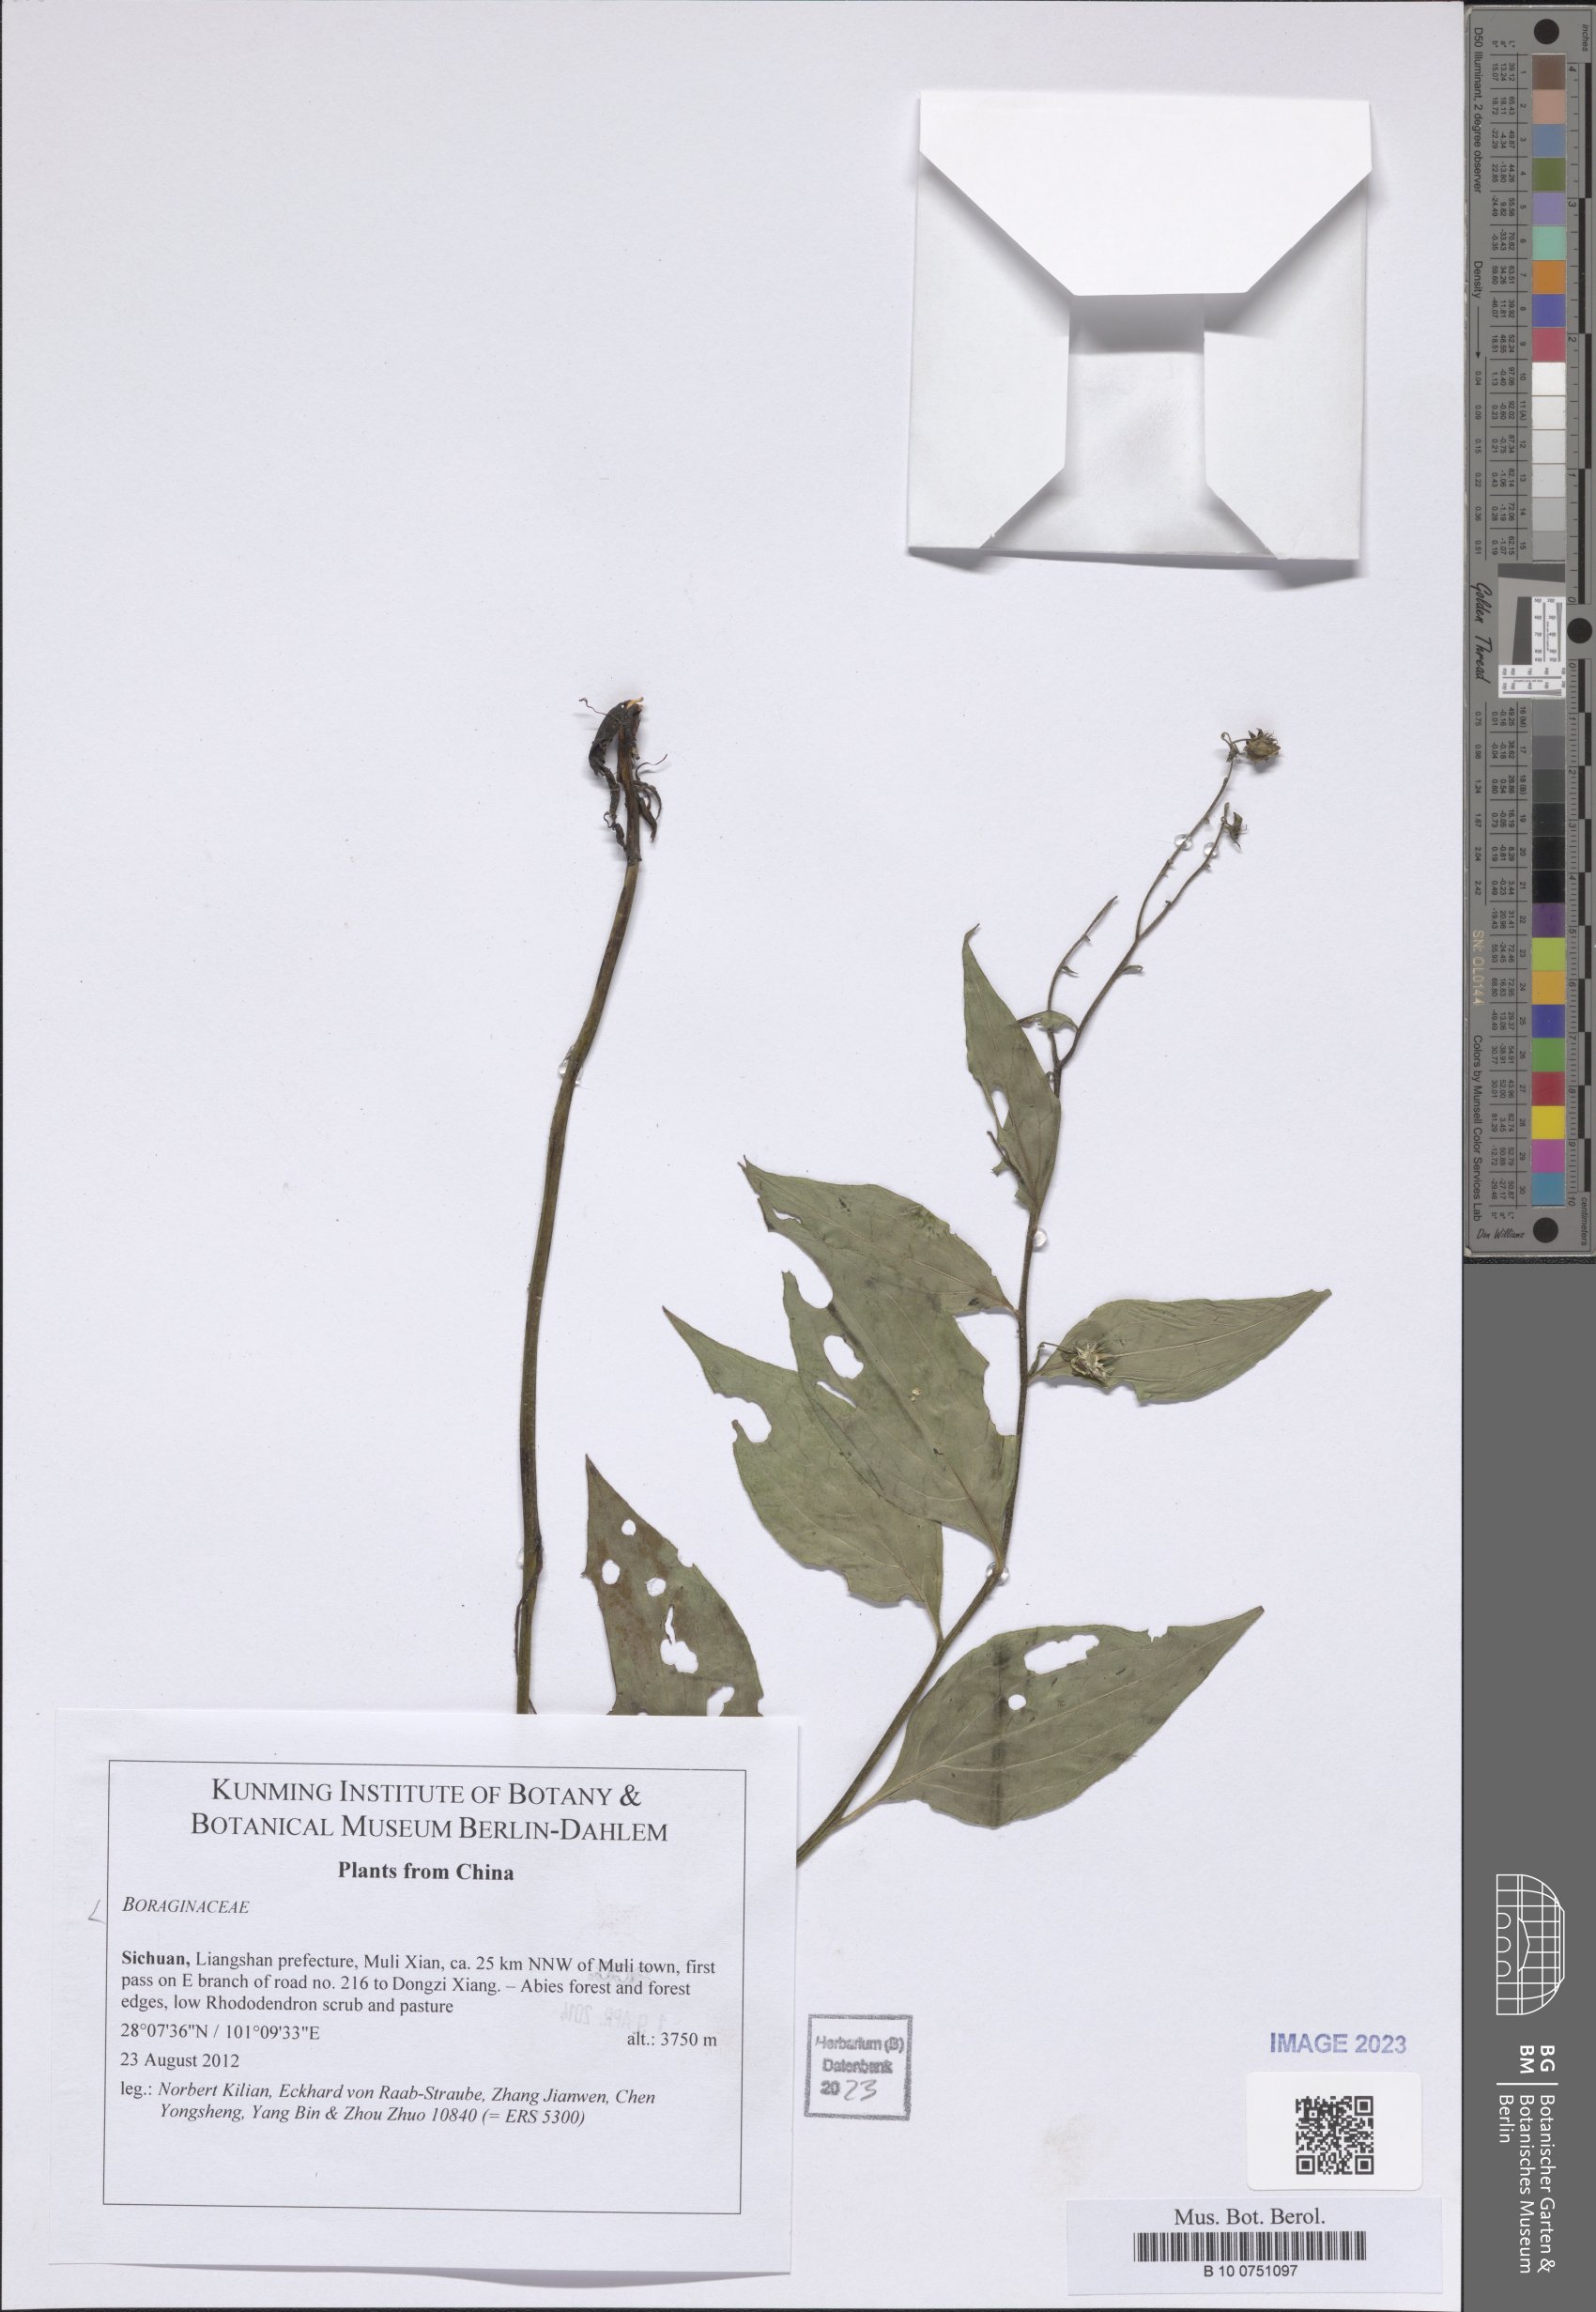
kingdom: Plantae
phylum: Tracheophyta
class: Magnoliopsida
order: Boraginales
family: Boraginaceae
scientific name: Boraginaceae
